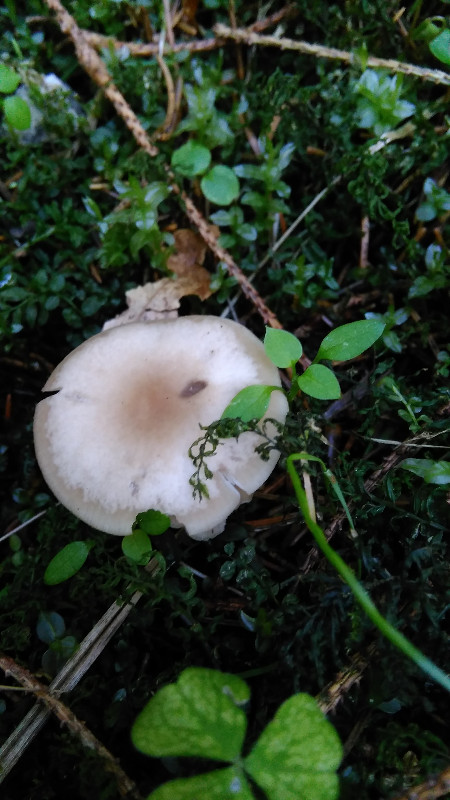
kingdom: Fungi
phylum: Basidiomycota
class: Agaricomycetes
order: Agaricales
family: Tricholomataceae
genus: Clitocybe
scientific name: Clitocybe fragrans
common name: vellugtende tragthat
